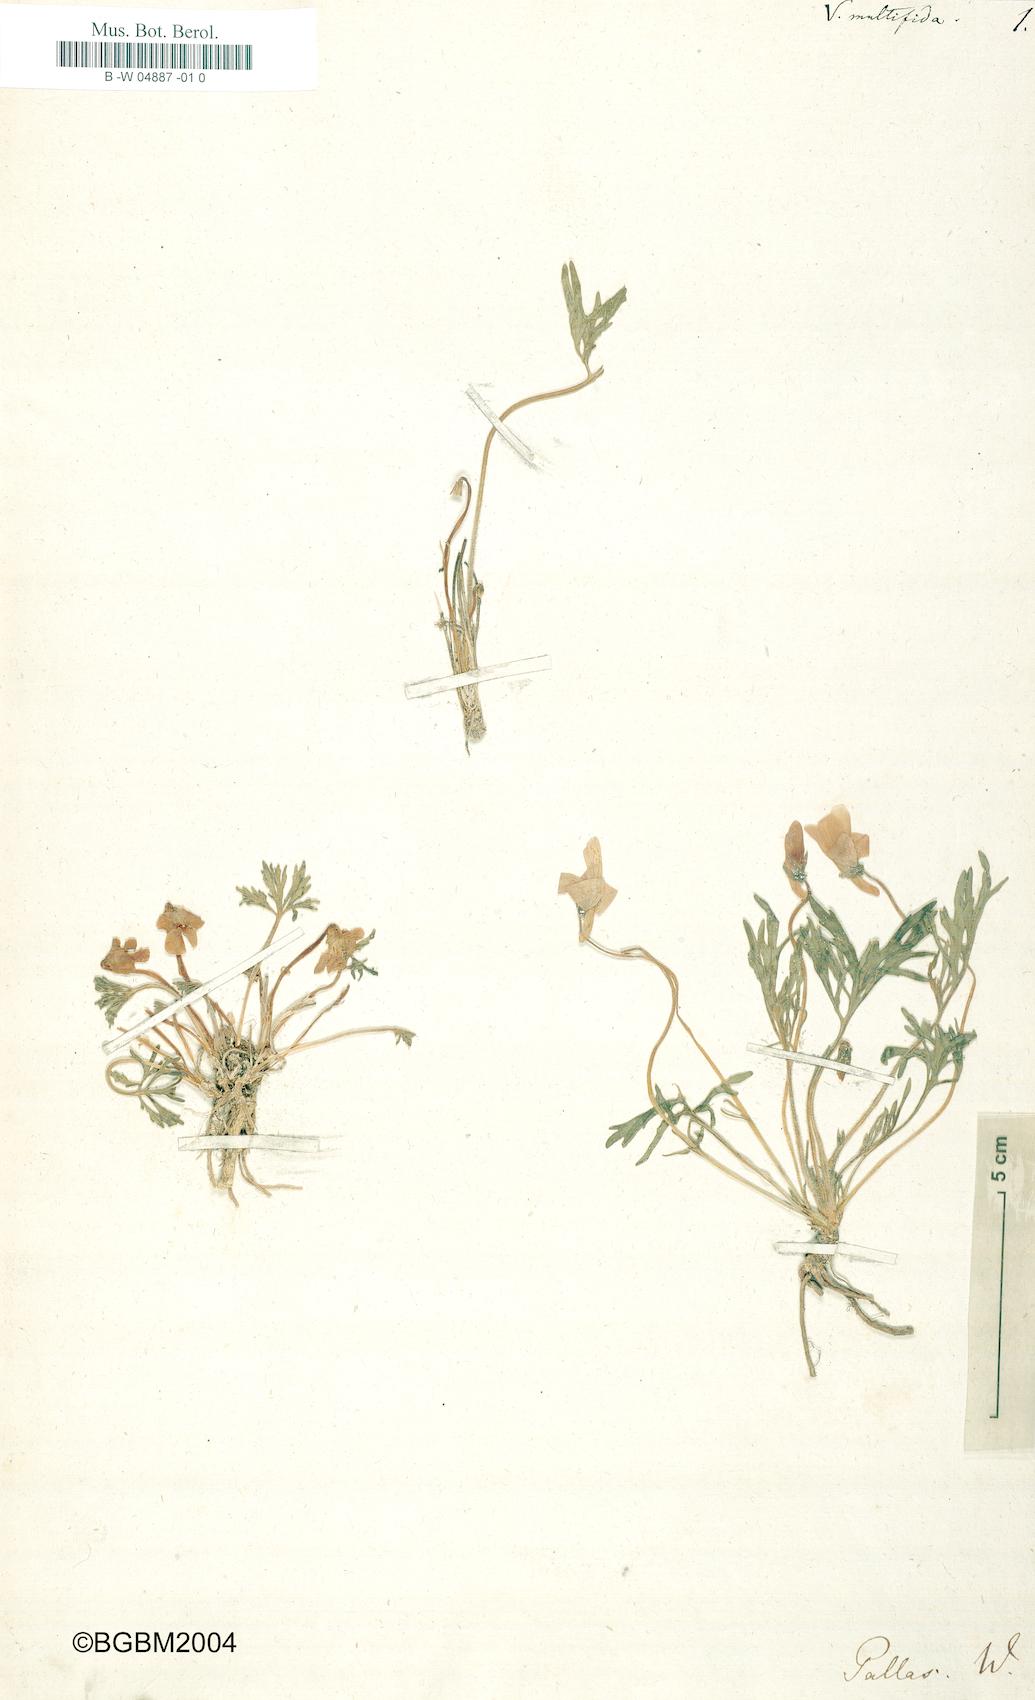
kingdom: Plantae
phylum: Tracheophyta
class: Magnoliopsida
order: Malpighiales
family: Violaceae
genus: Viola
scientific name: Viola multifida
